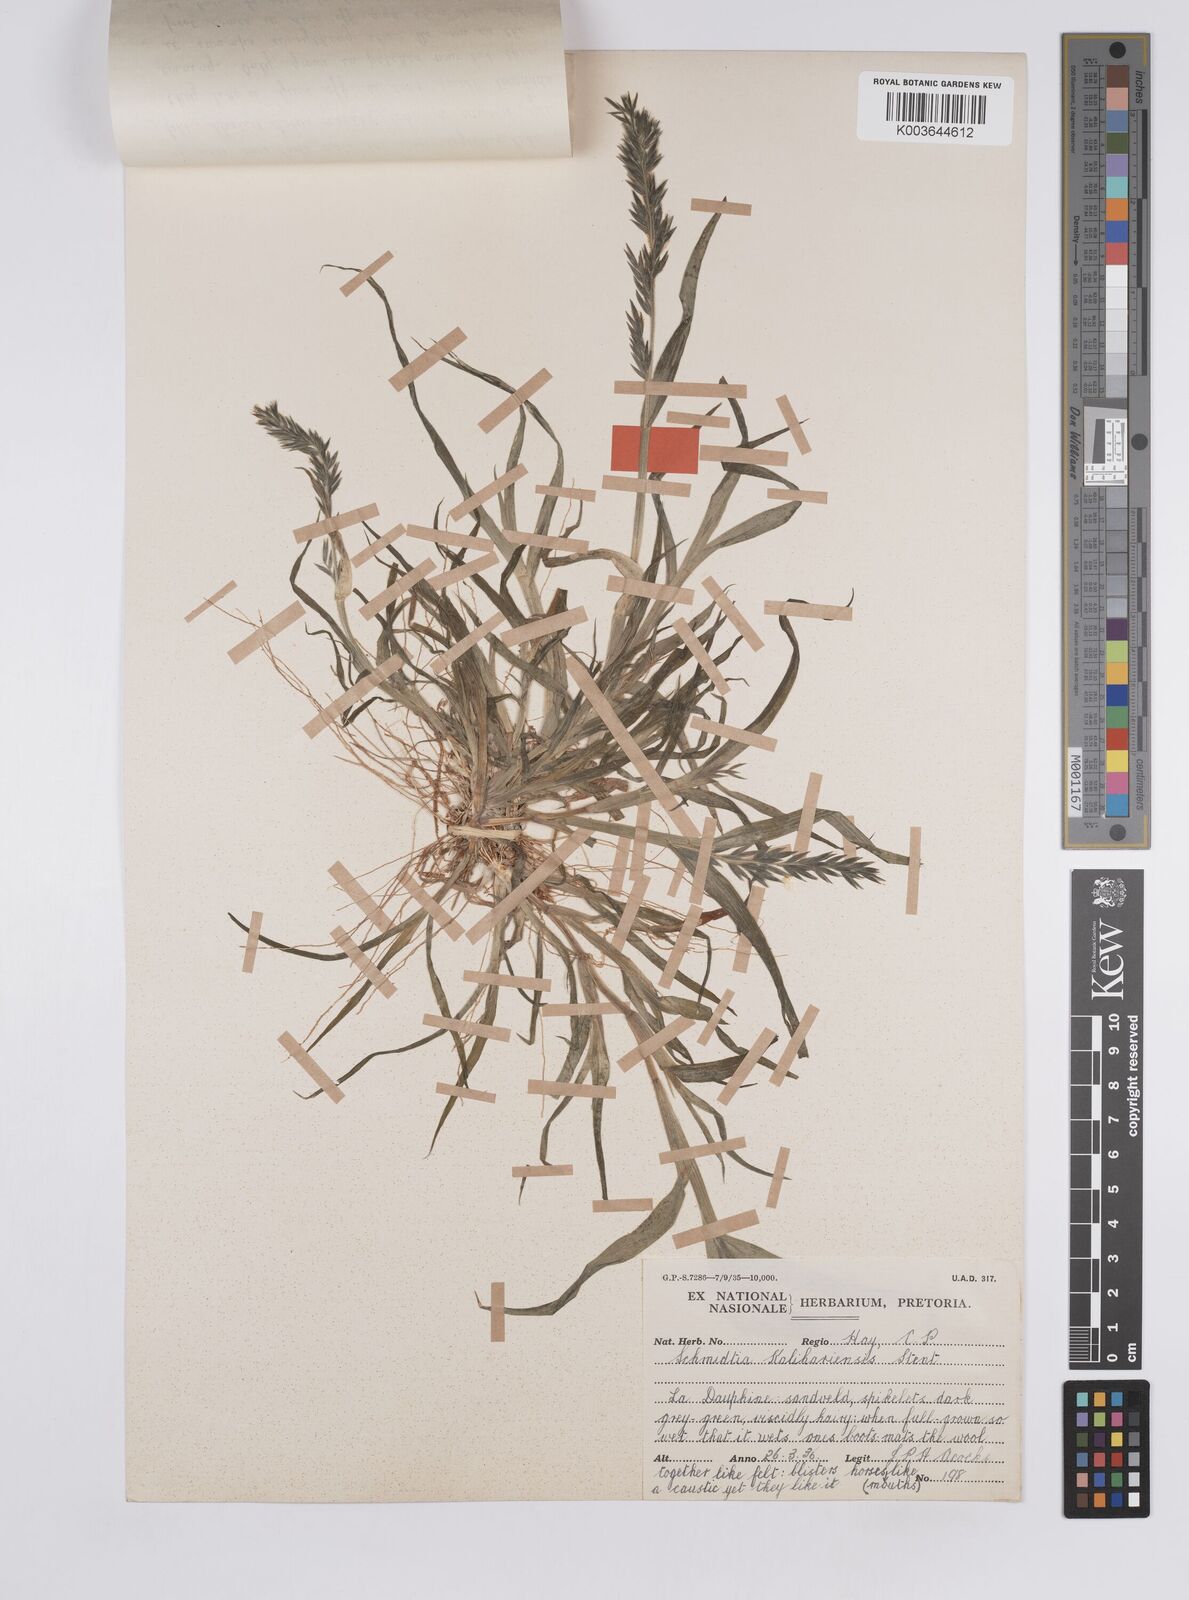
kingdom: Plantae
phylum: Tracheophyta
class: Liliopsida
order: Poales
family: Poaceae
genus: Schmidtia
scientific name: Schmidtia kalahariensis
